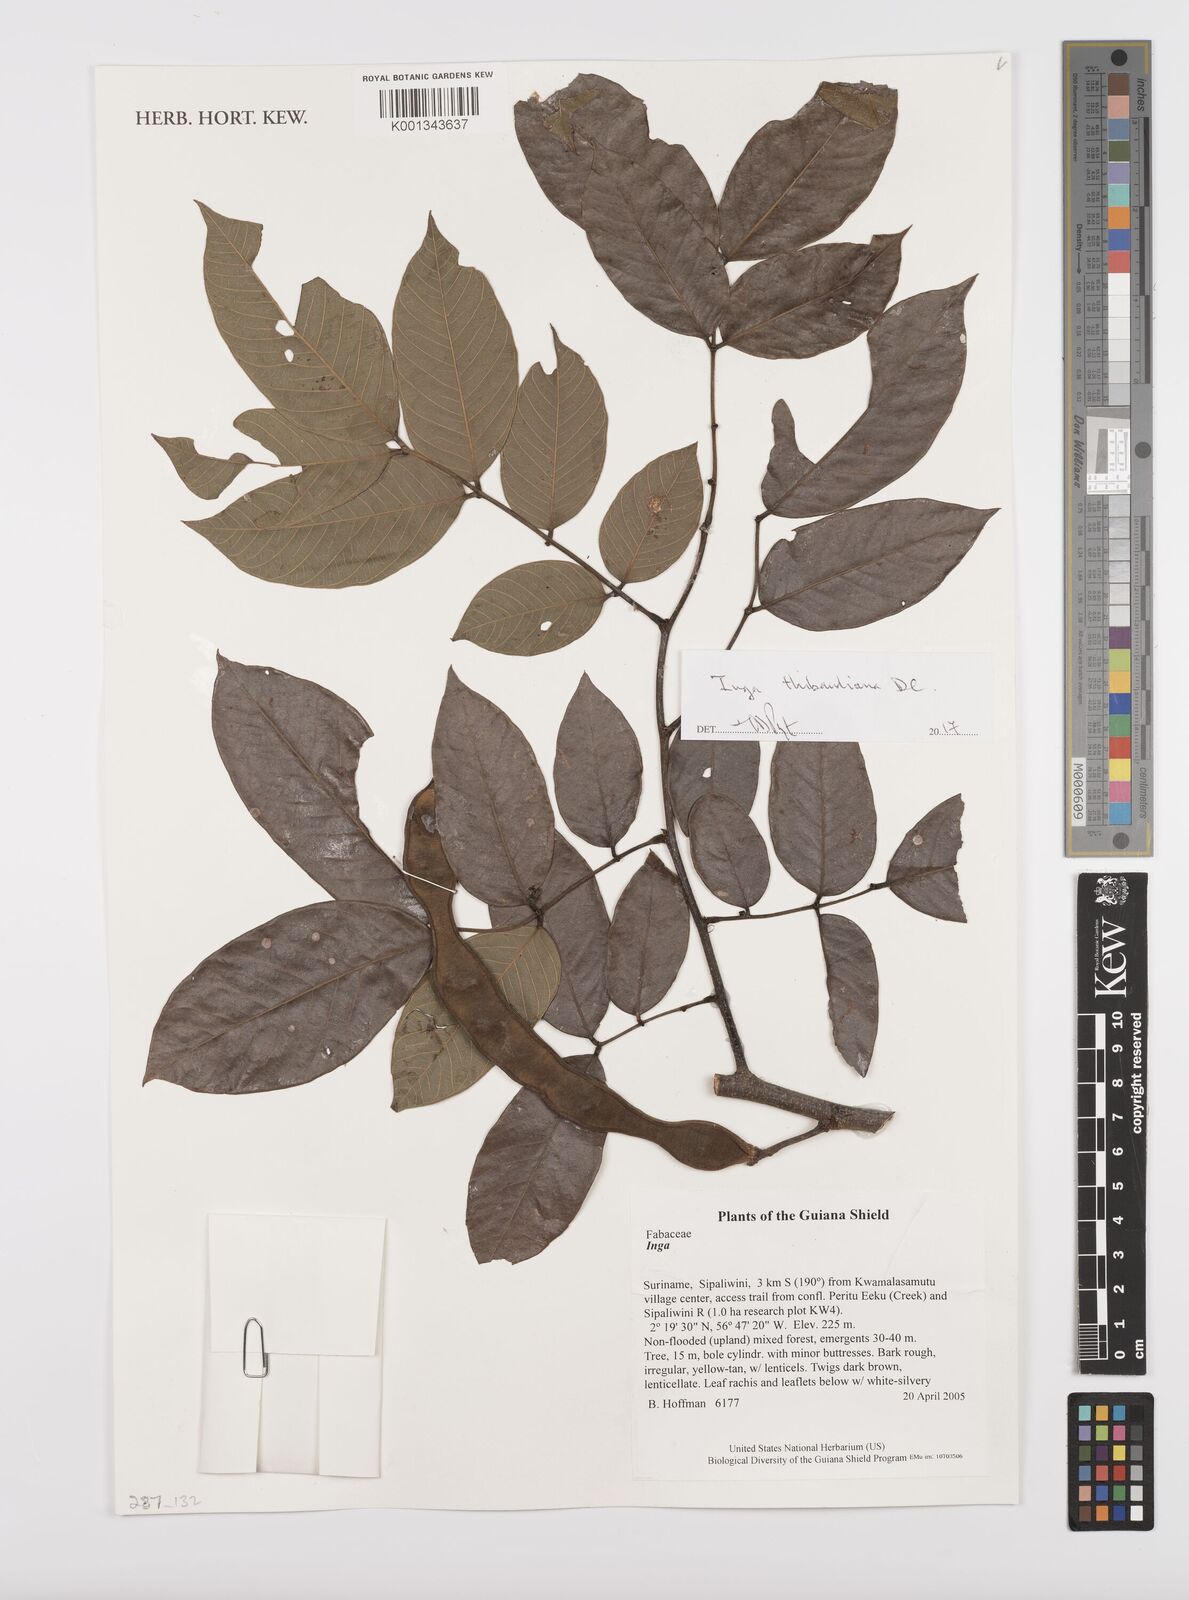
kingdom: Plantae
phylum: Tracheophyta
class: Magnoliopsida
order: Fabales
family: Fabaceae
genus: Inga
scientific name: Inga thibaudiana
